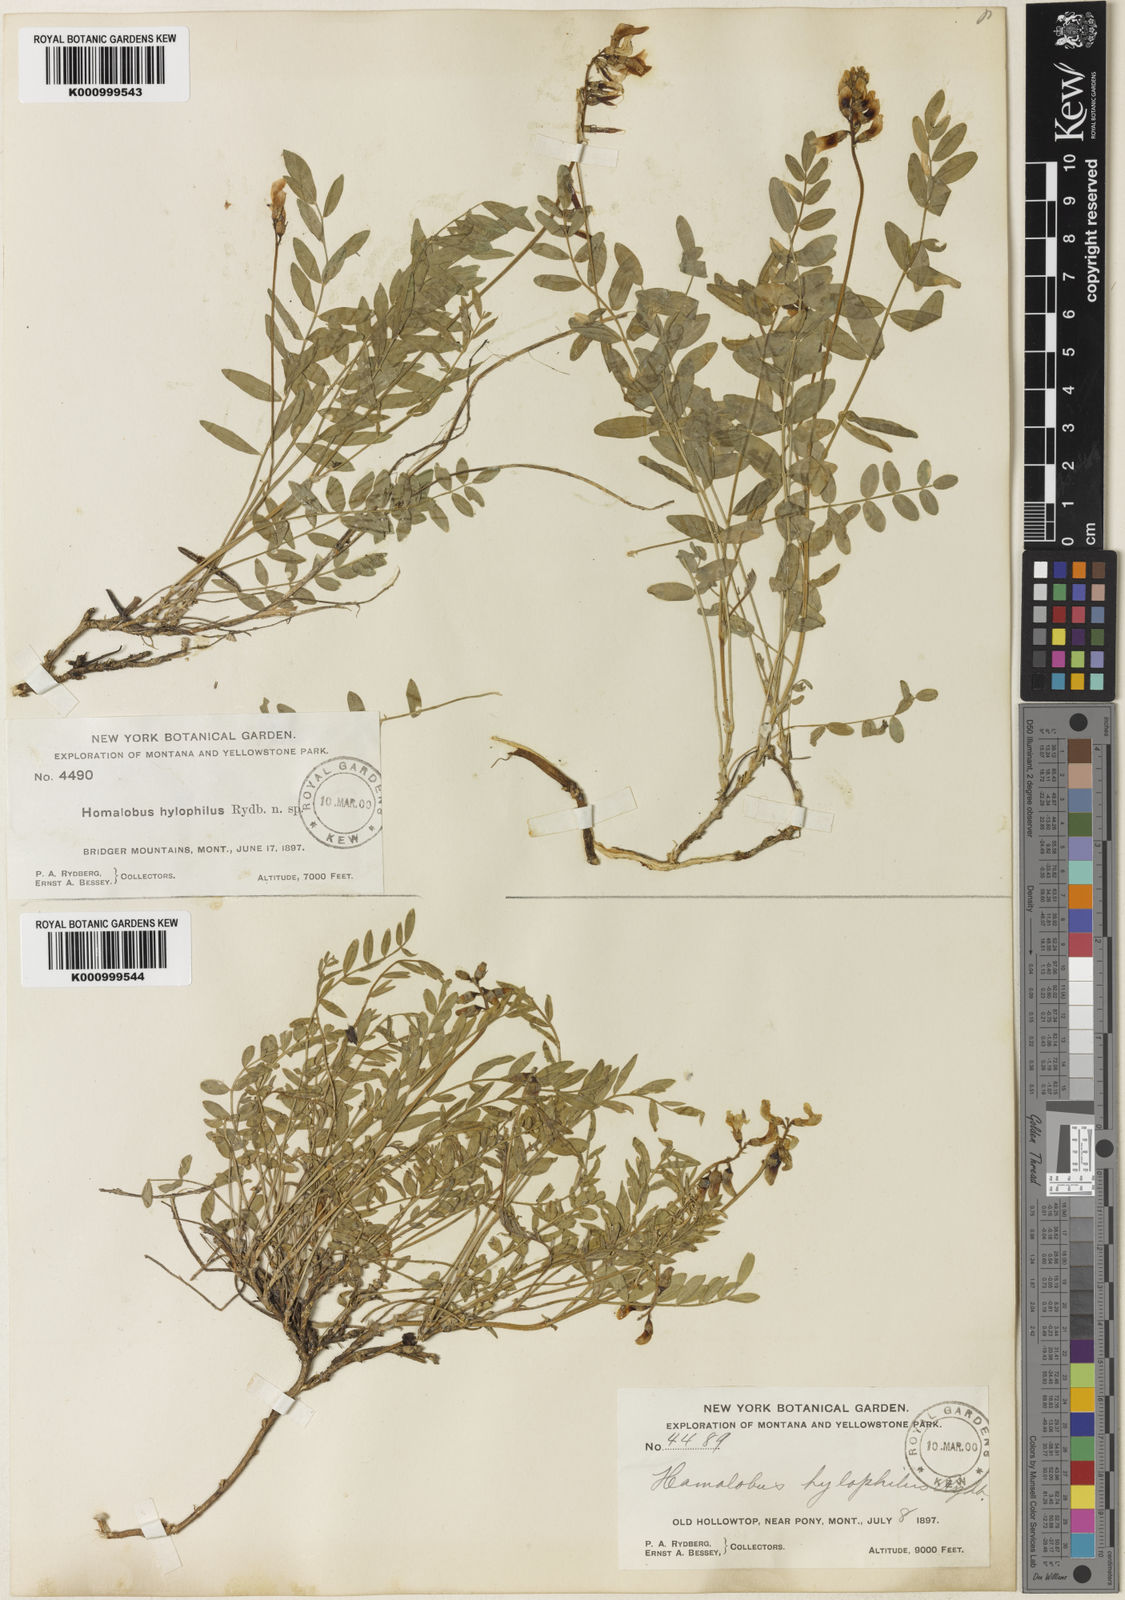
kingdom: Plantae
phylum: Tracheophyta
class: Magnoliopsida
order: Fabales
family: Fabaceae
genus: Astragalus
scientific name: Astragalus miser
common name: Timber milkvetch
